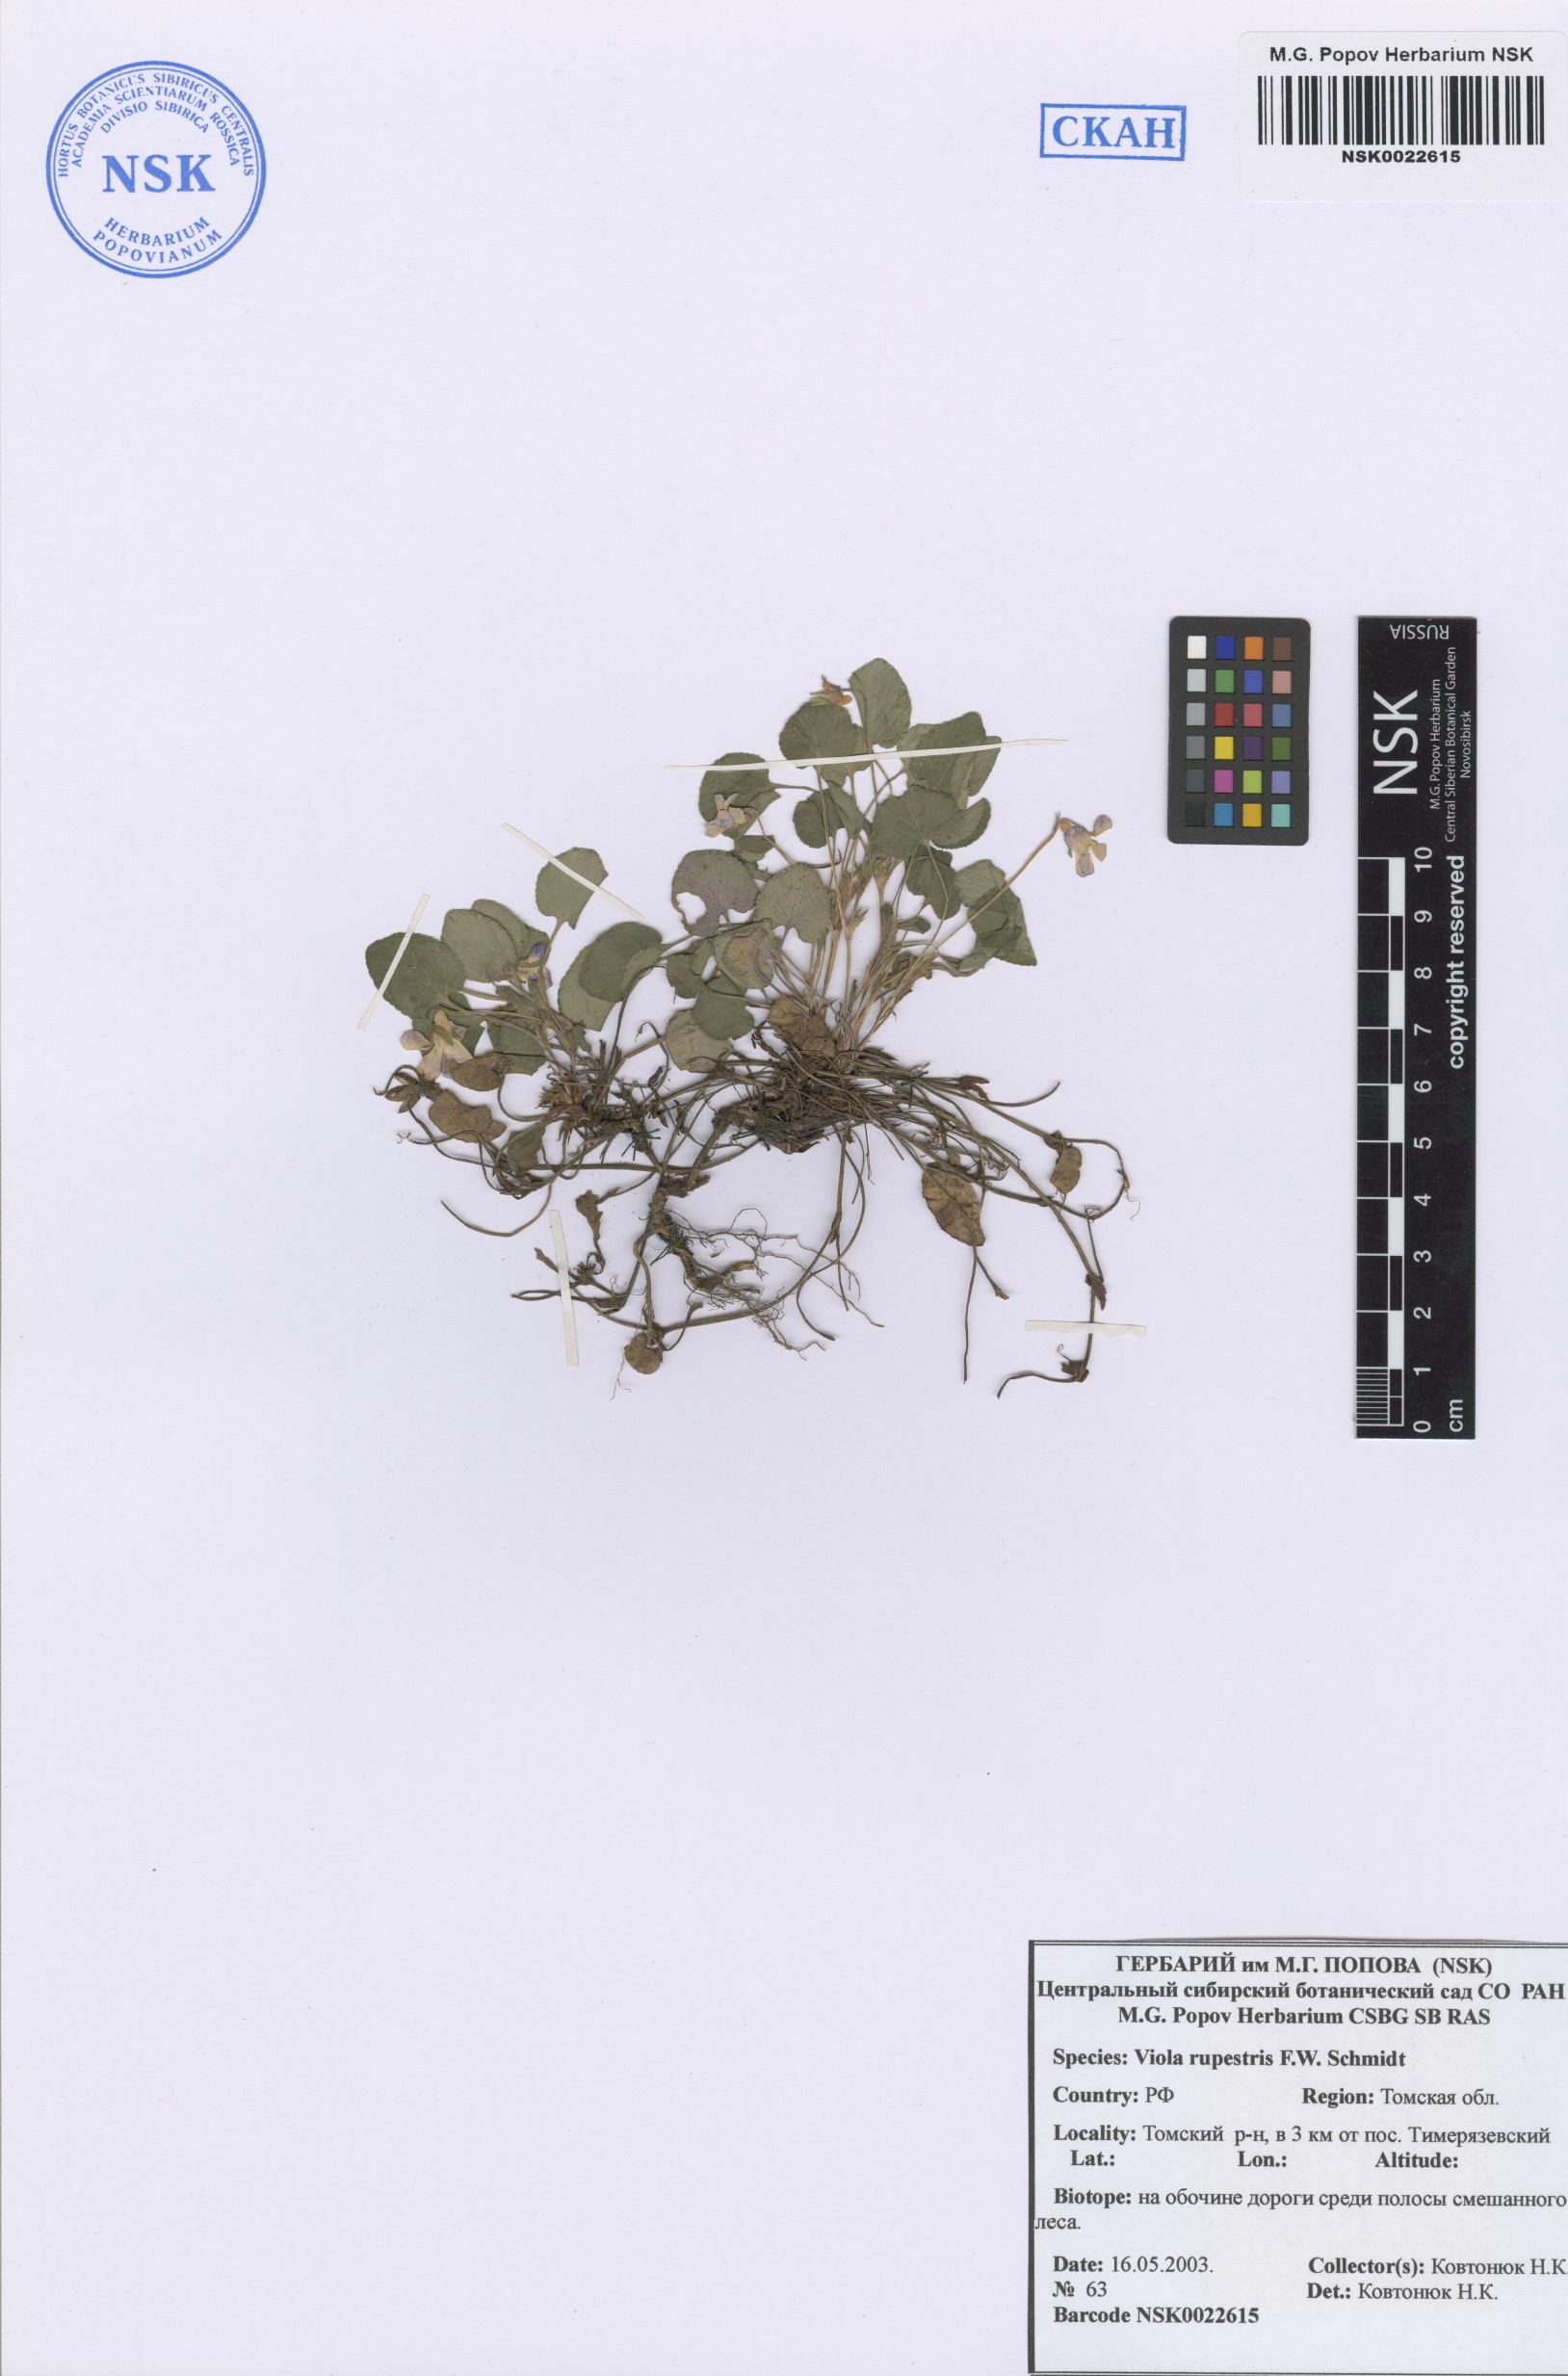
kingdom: Plantae
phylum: Tracheophyta
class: Magnoliopsida
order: Malpighiales
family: Violaceae
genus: Viola
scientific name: Viola rupestris
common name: Teesdale violet
